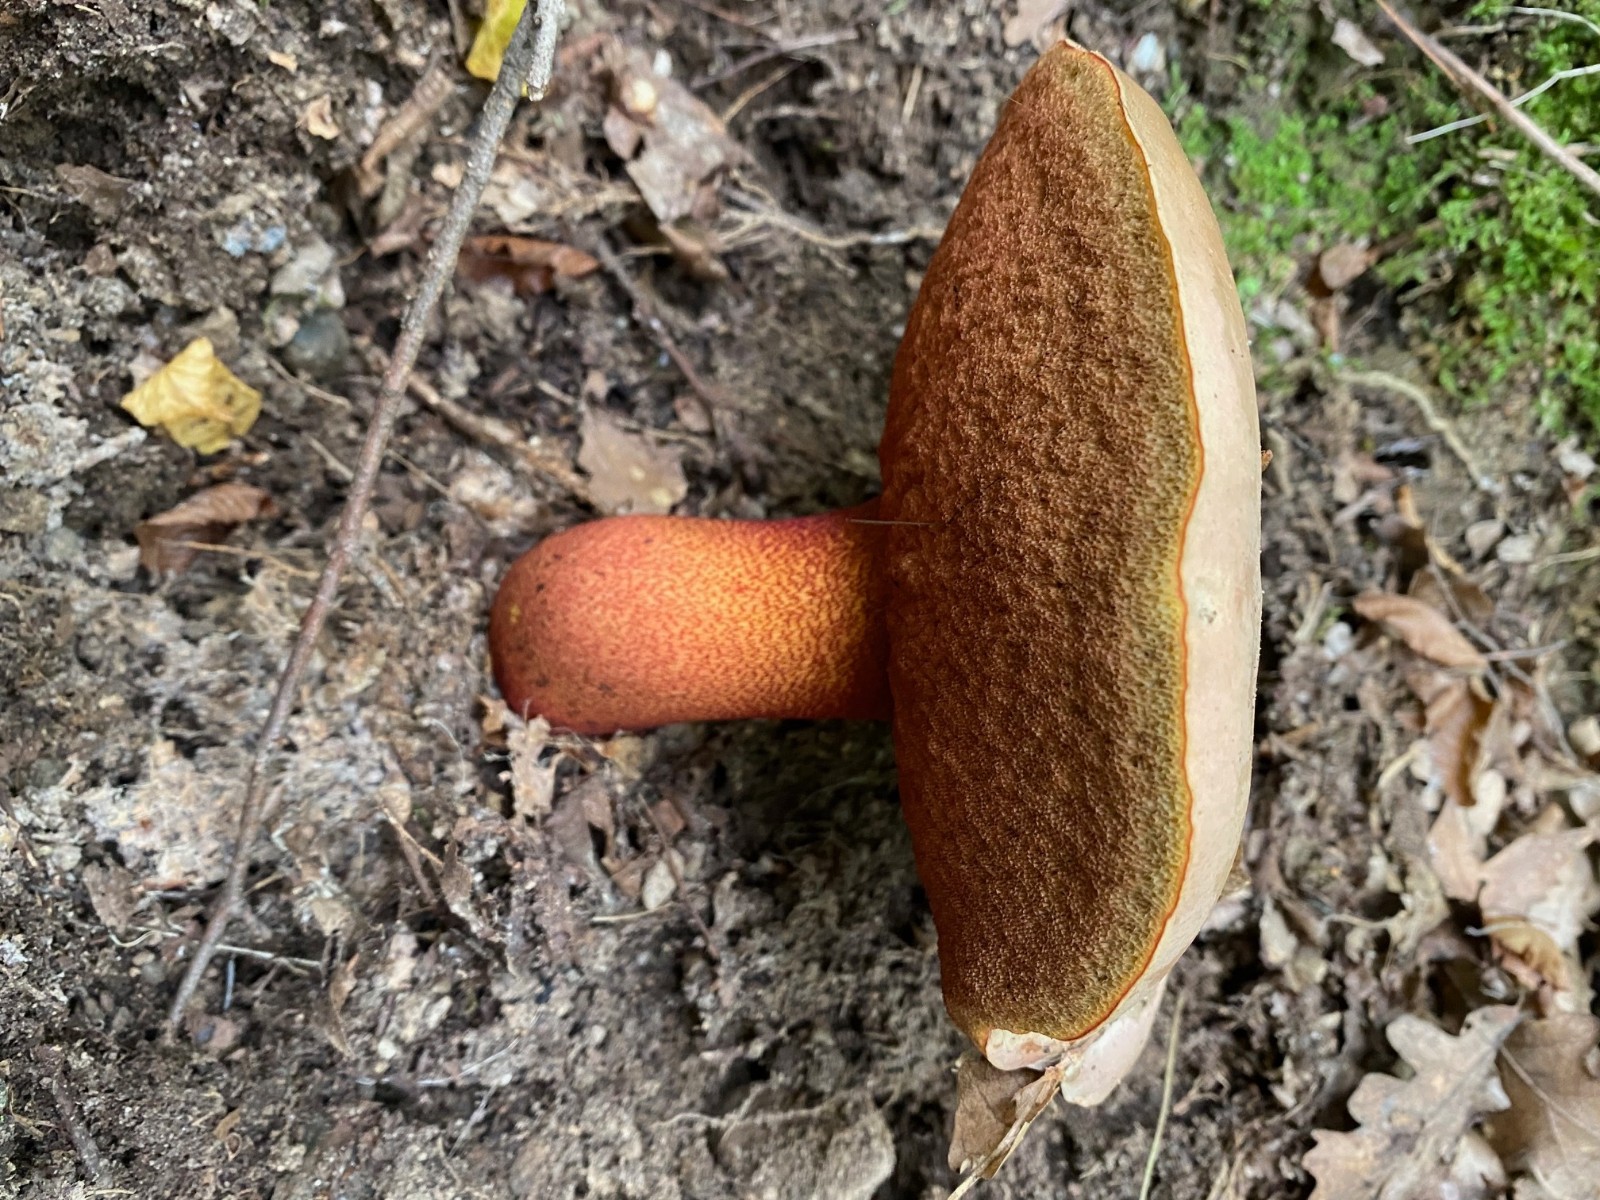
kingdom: Fungi
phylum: Basidiomycota
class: Agaricomycetes
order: Boletales
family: Boletaceae
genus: Rubroboletus
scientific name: Rubroboletus rhodoxanthus
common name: rødgul rørhat
